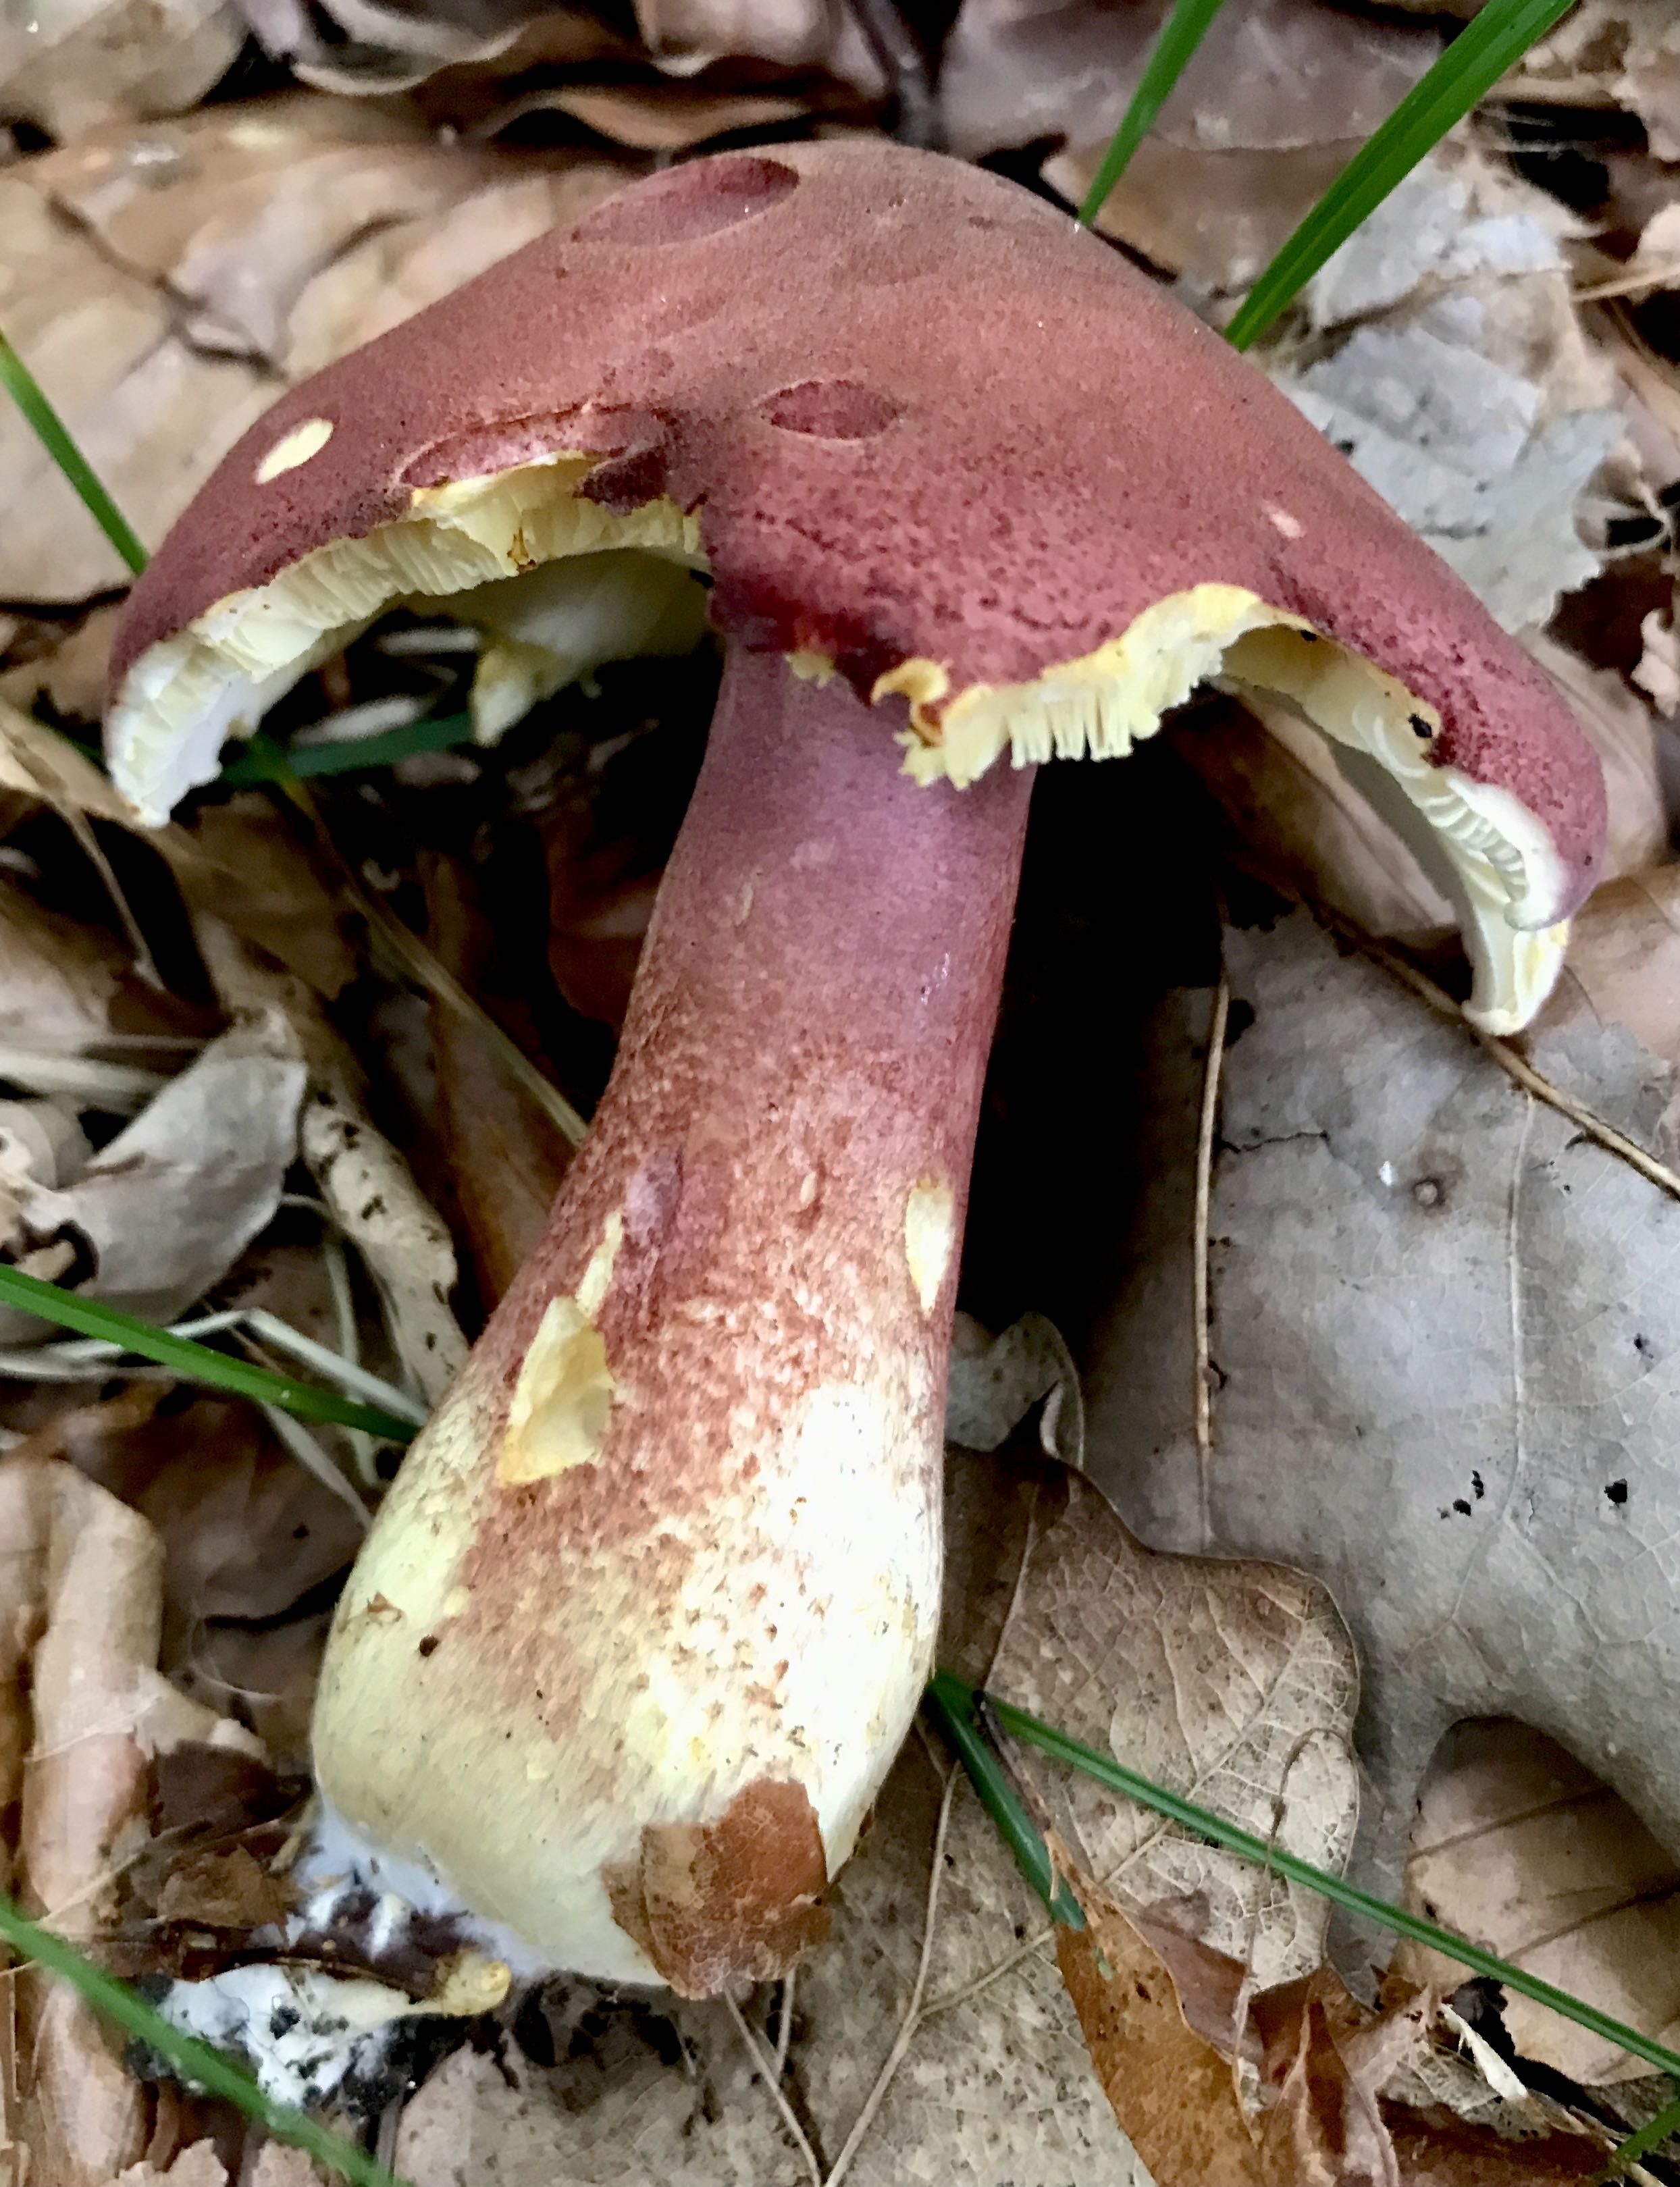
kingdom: Fungi
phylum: Basidiomycota
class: Agaricomycetes
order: Agaricales
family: Tricholomataceae
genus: Tricholomopsis
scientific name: Tricholomopsis rutilans
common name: purpur-væbnerhat
